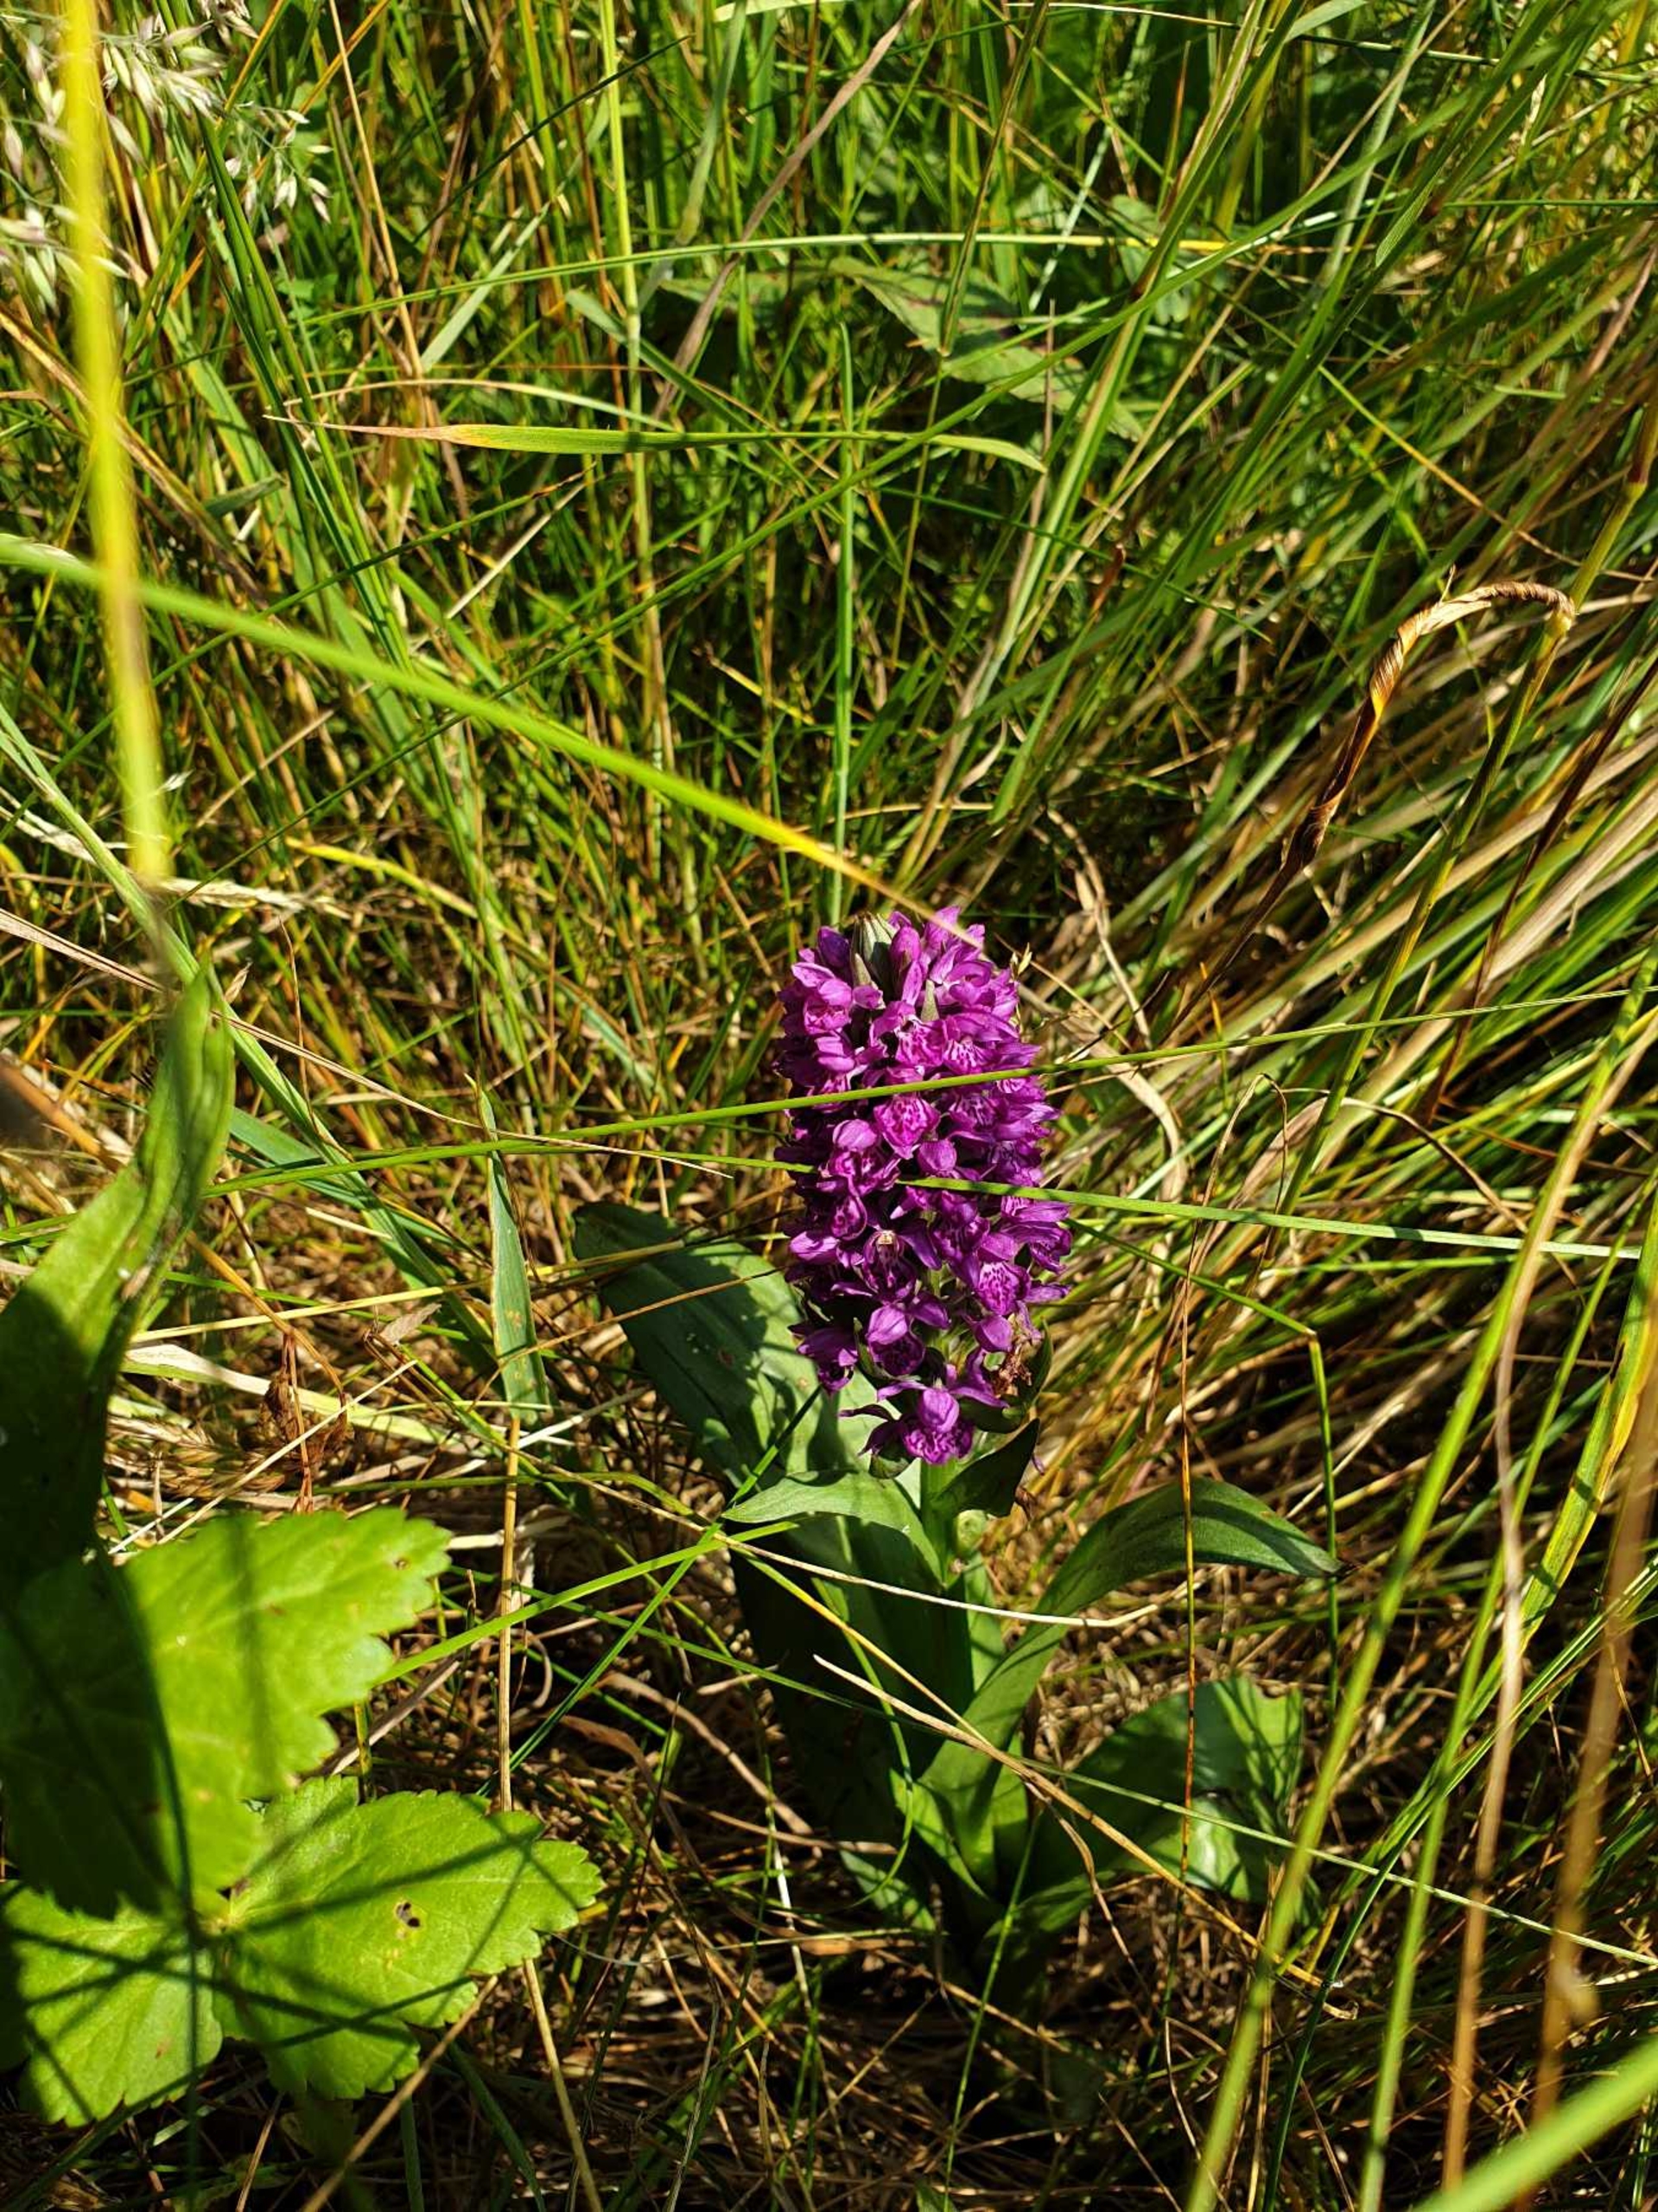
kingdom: Plantae
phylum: Tracheophyta
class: Liliopsida
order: Asparagales
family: Orchidaceae
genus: Dactylorhiza
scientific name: Dactylorhiza majalis
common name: Purpur-gøgeurt
